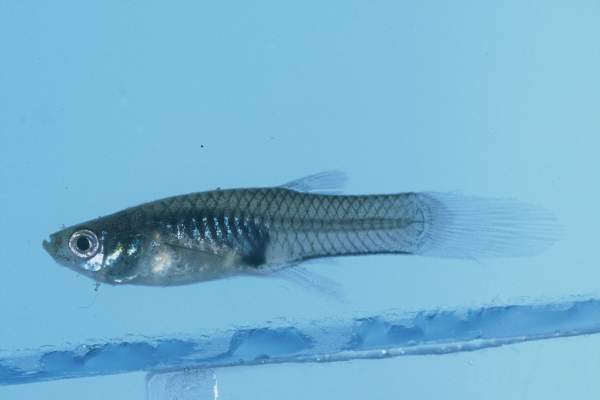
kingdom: Animalia
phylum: Chordata
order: Cyprinodontiformes
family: Poeciliidae
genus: Poecilia
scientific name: Poecilia reticulata
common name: Guppy
